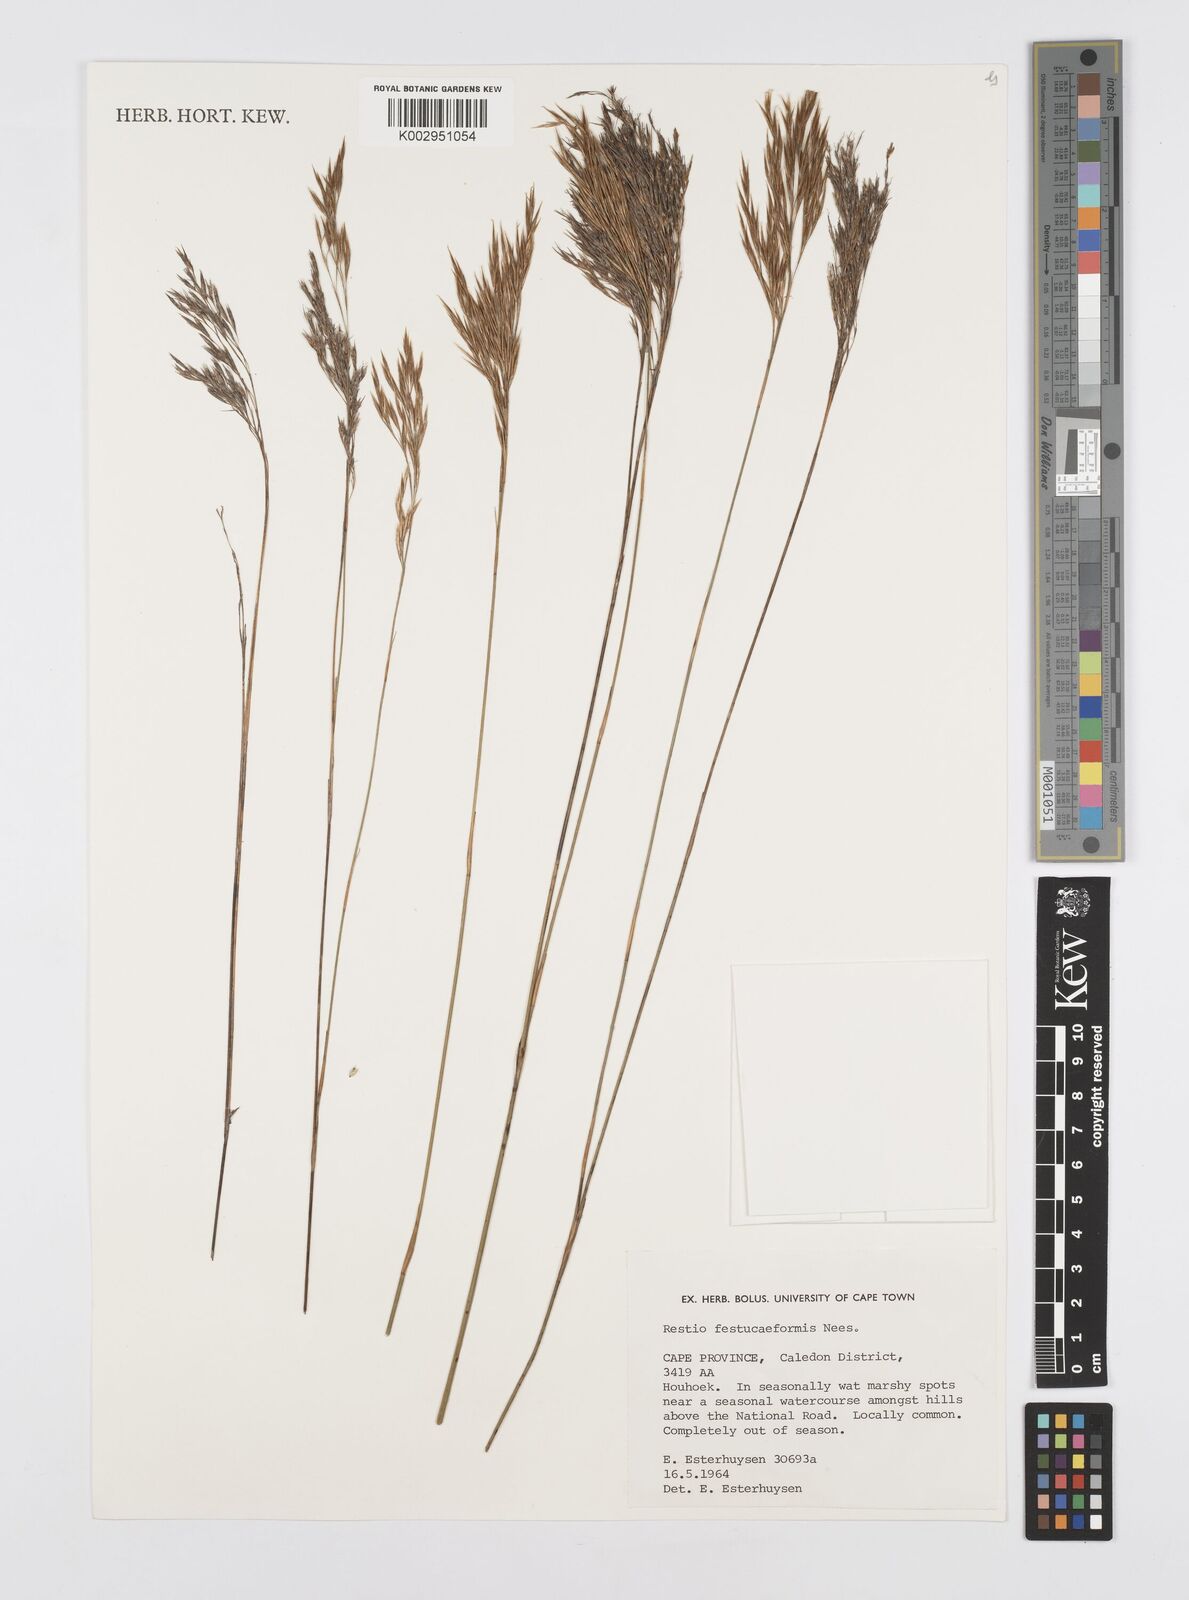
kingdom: Plantae
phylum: Tracheophyta
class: Liliopsida
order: Poales
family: Restionaceae
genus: Restio
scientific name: Restio festuciformis
